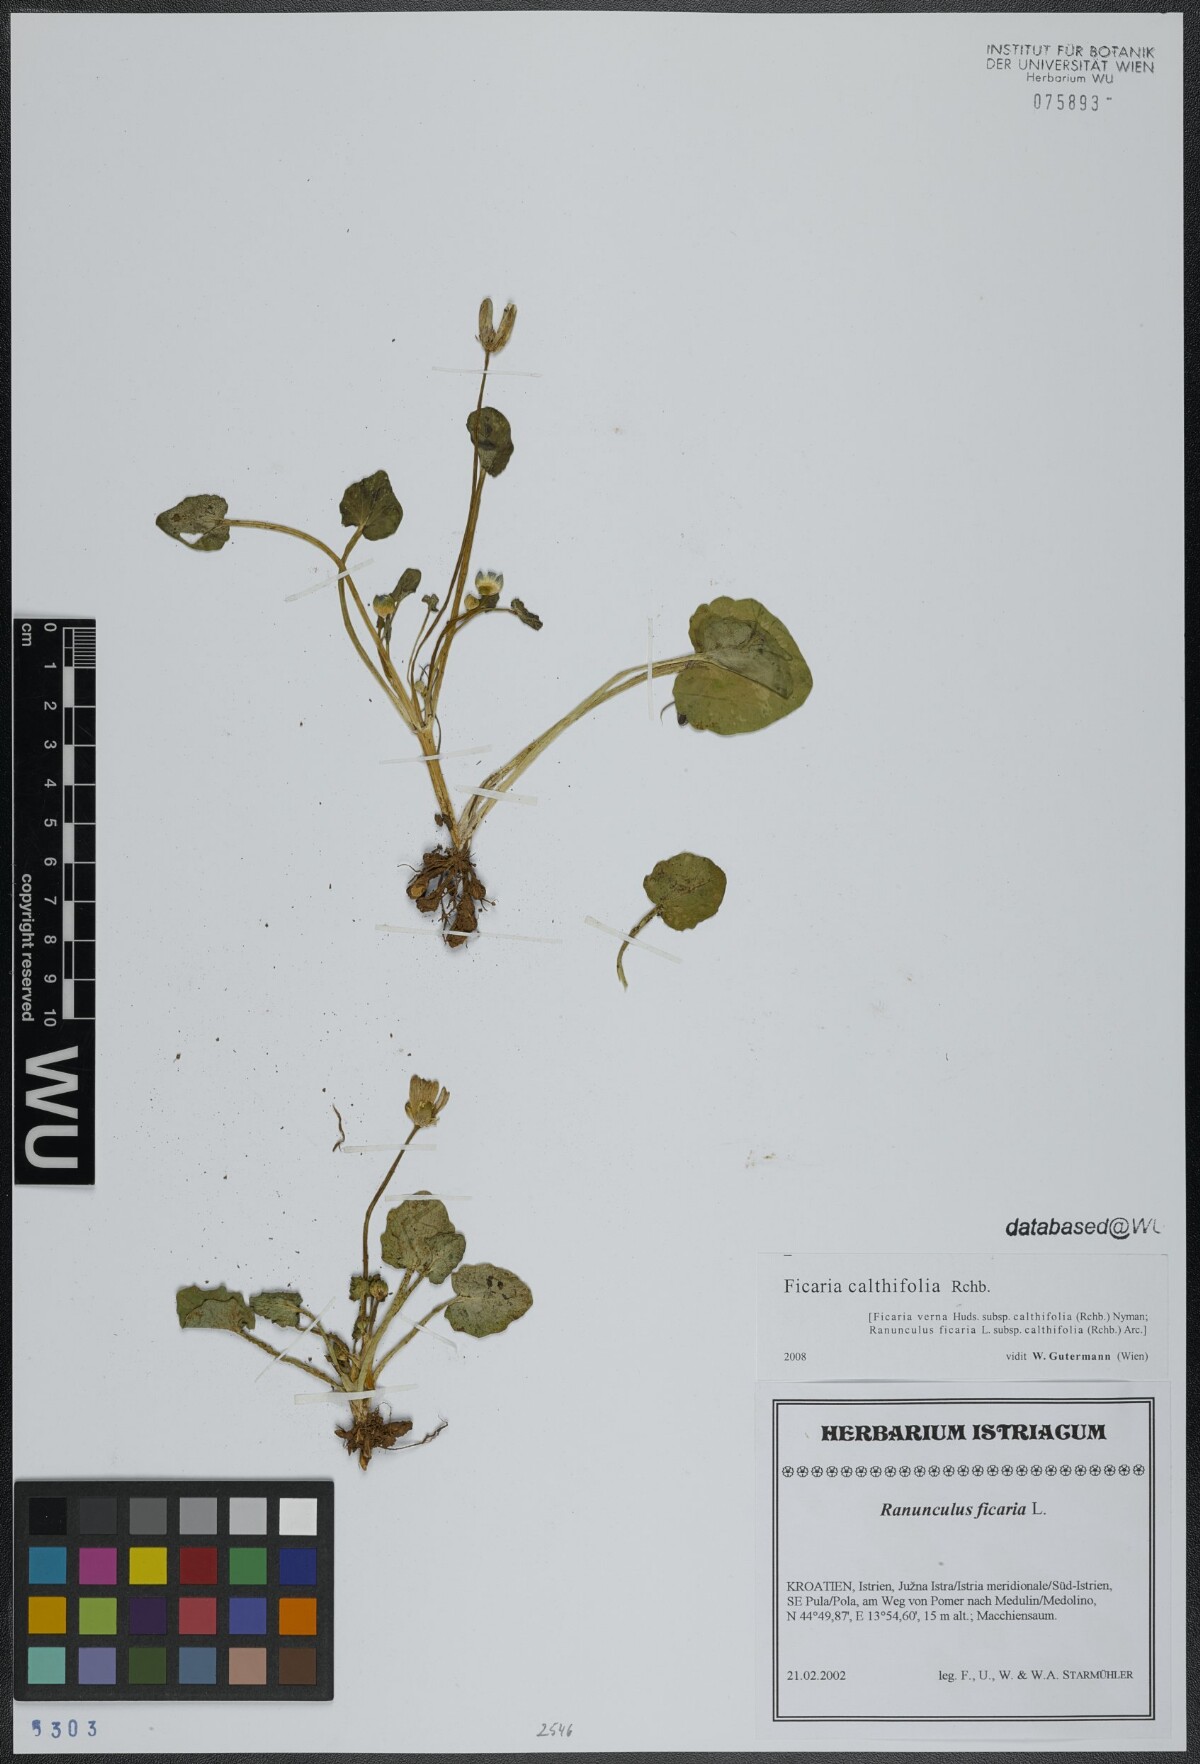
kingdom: Plantae
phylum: Tracheophyta
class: Magnoliopsida
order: Ranunculales
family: Ranunculaceae
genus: Ficaria
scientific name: Ficaria calthifolia
